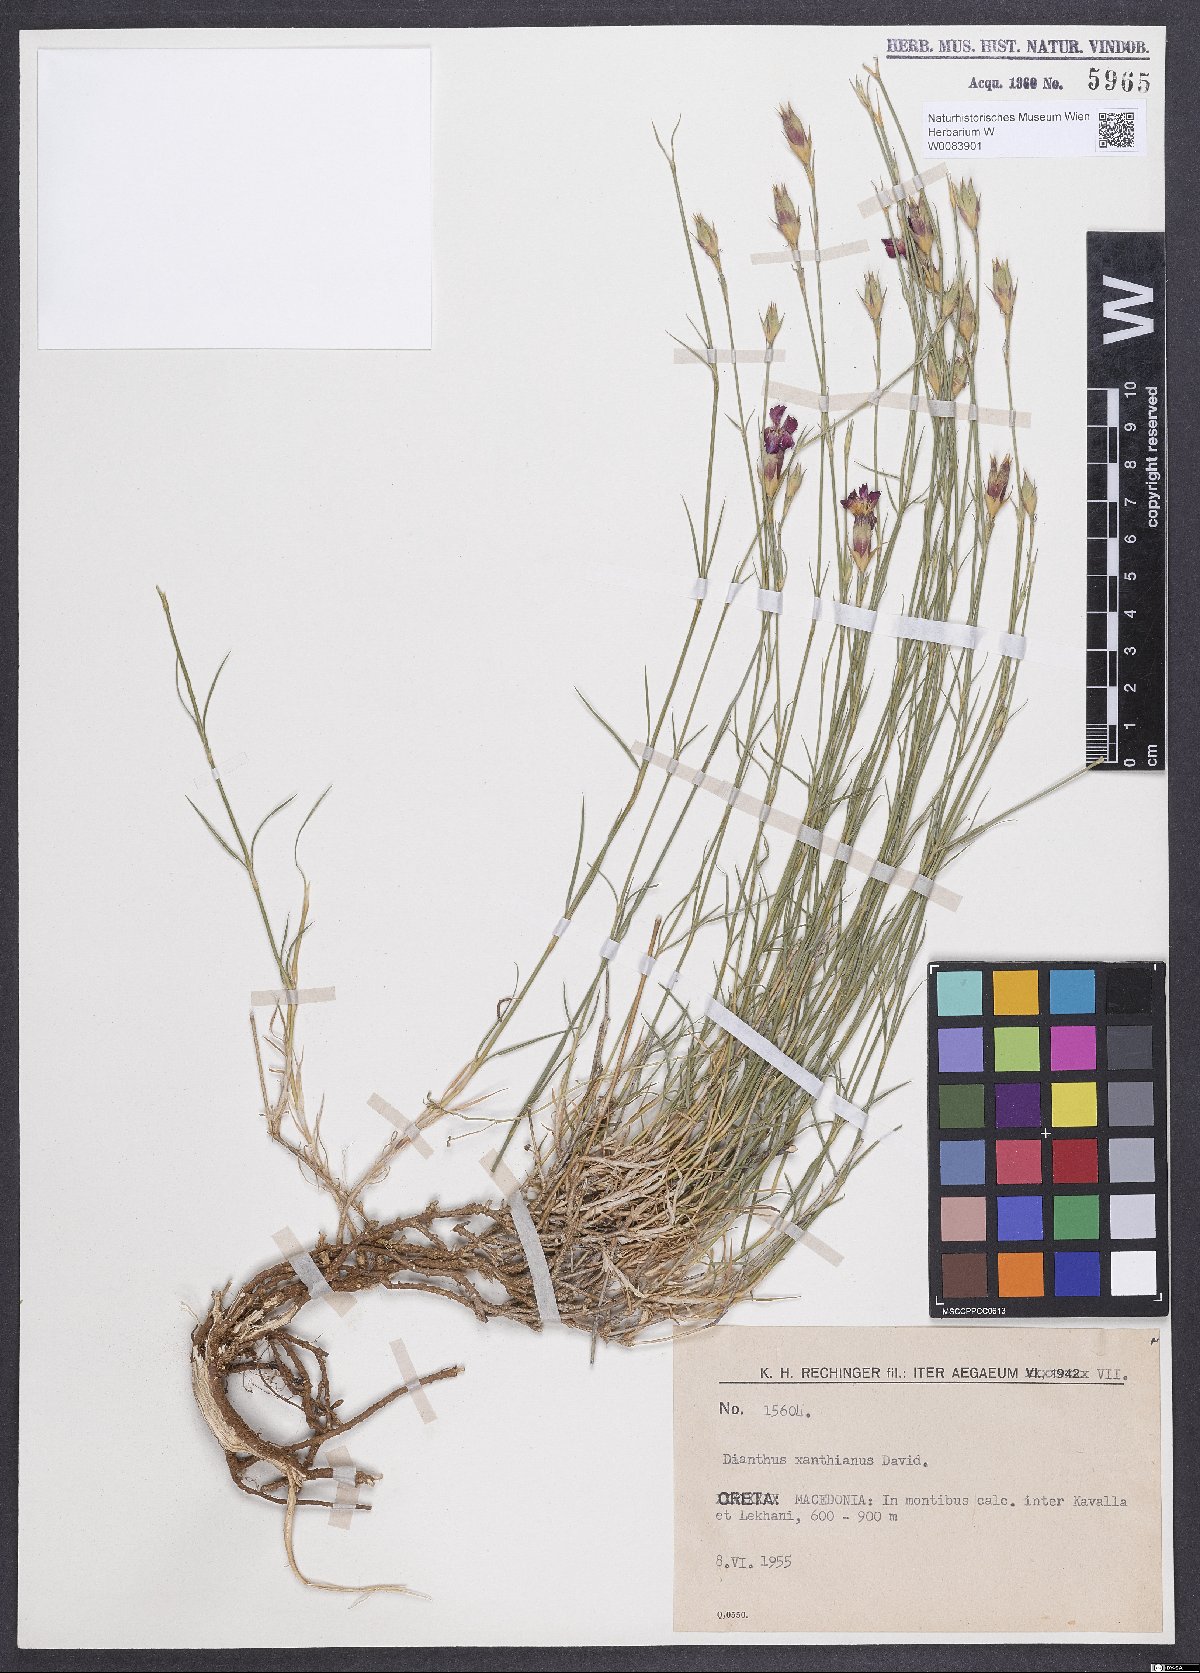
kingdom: Plantae
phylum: Tracheophyta
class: Magnoliopsida
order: Caryophyllales
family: Caryophyllaceae
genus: Dianthus
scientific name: Dianthus gracilis
